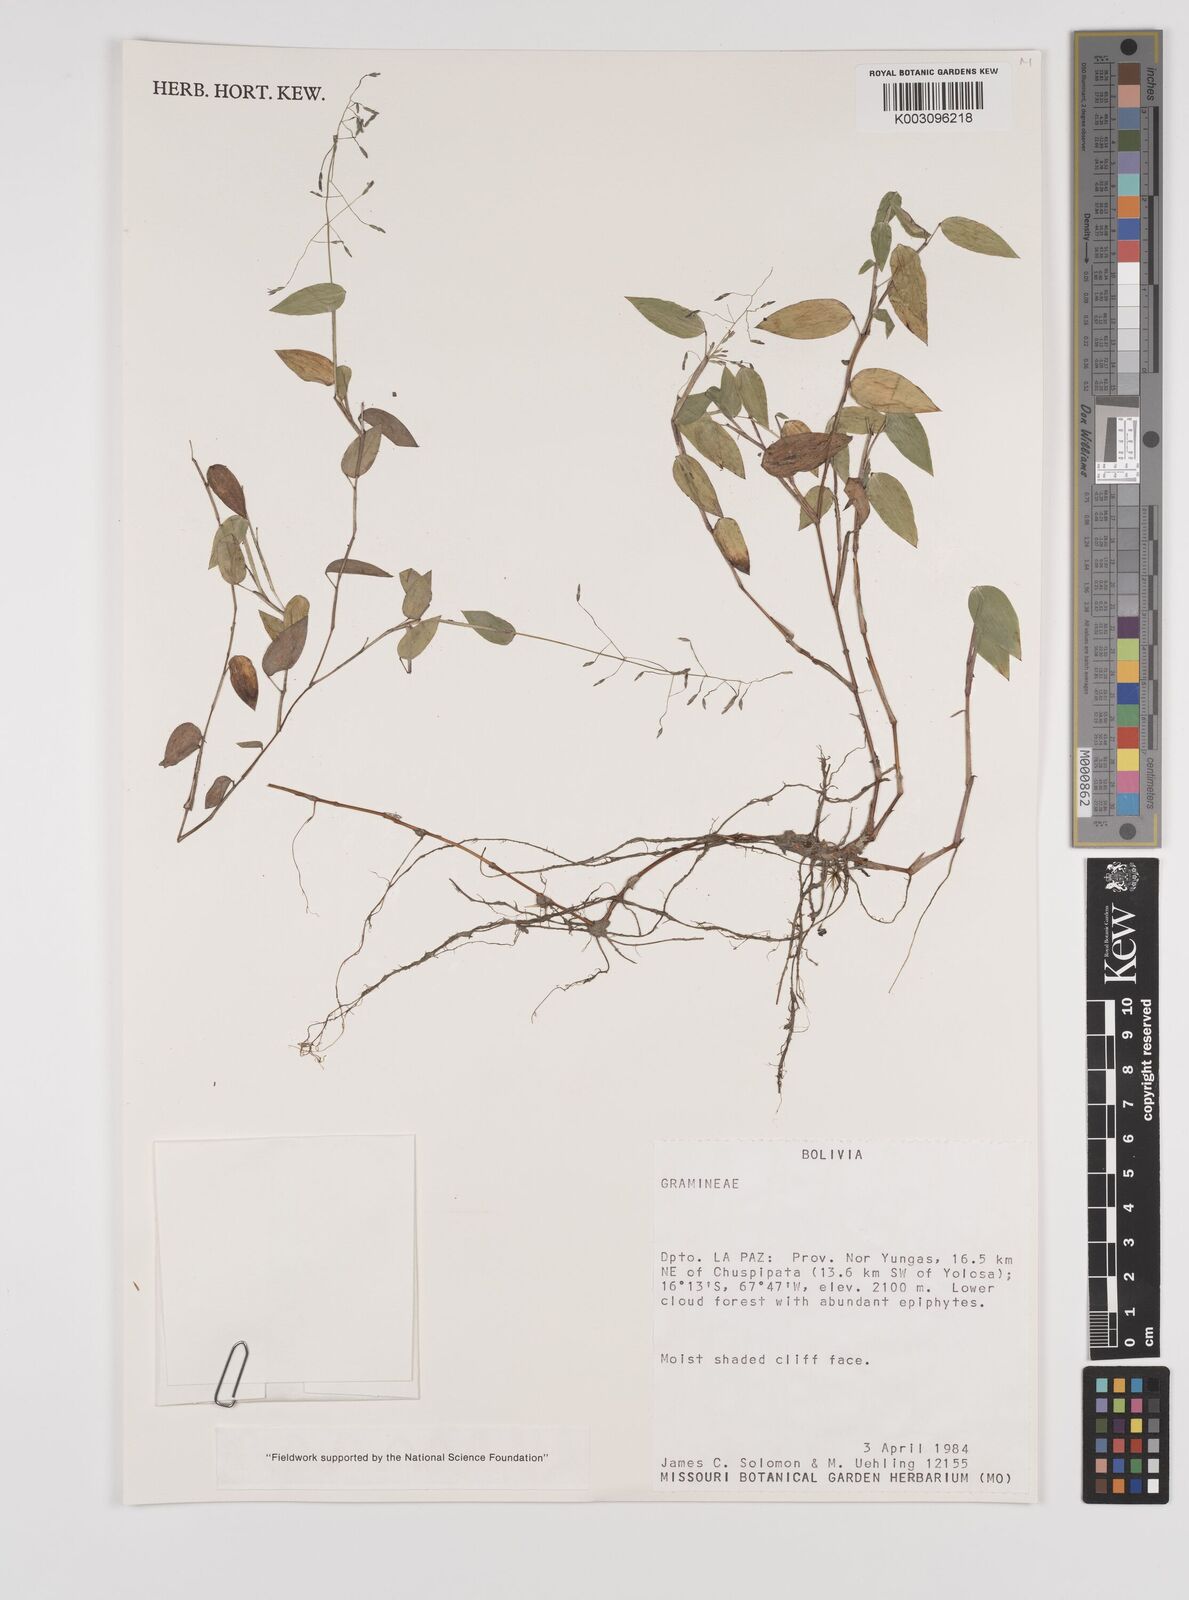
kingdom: Plantae
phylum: Tracheophyta
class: Liliopsida
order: Poales
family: Poaceae
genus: Zeugites
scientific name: Zeugites americanus
